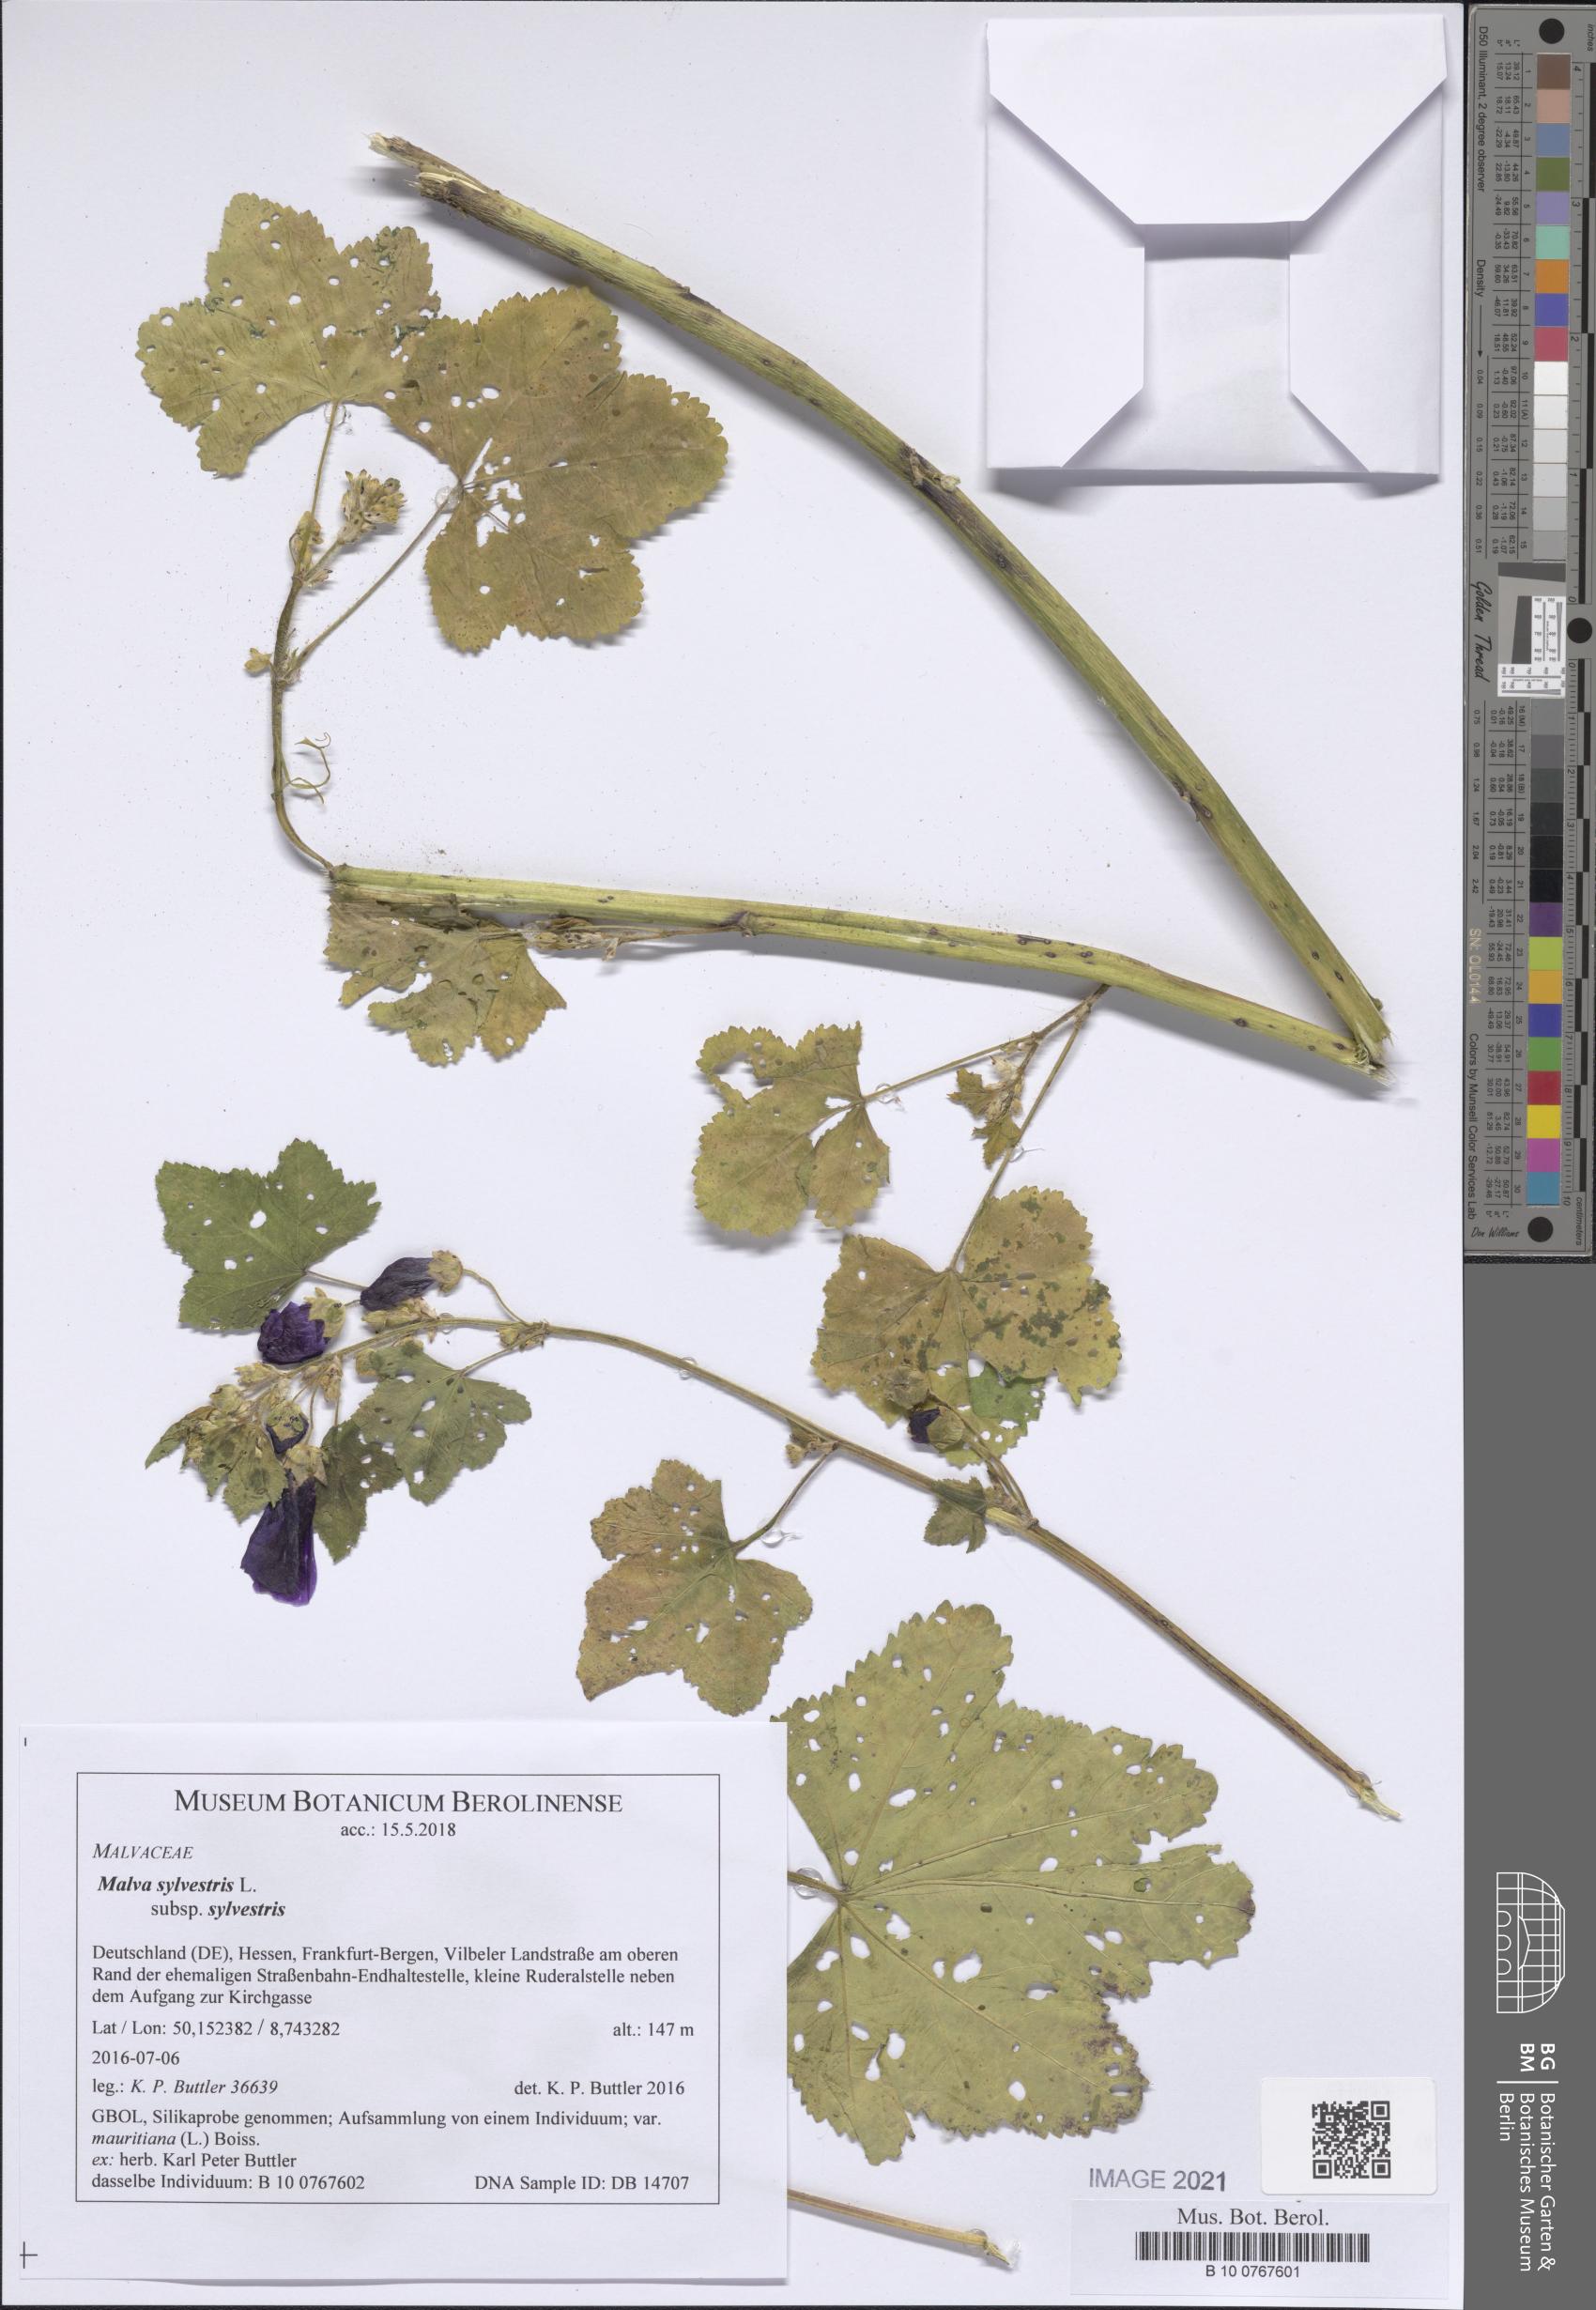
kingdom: Plantae
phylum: Tracheophyta
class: Magnoliopsida
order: Malvales
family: Malvaceae
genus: Malva
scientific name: Malva sylvestris
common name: Common mallow
